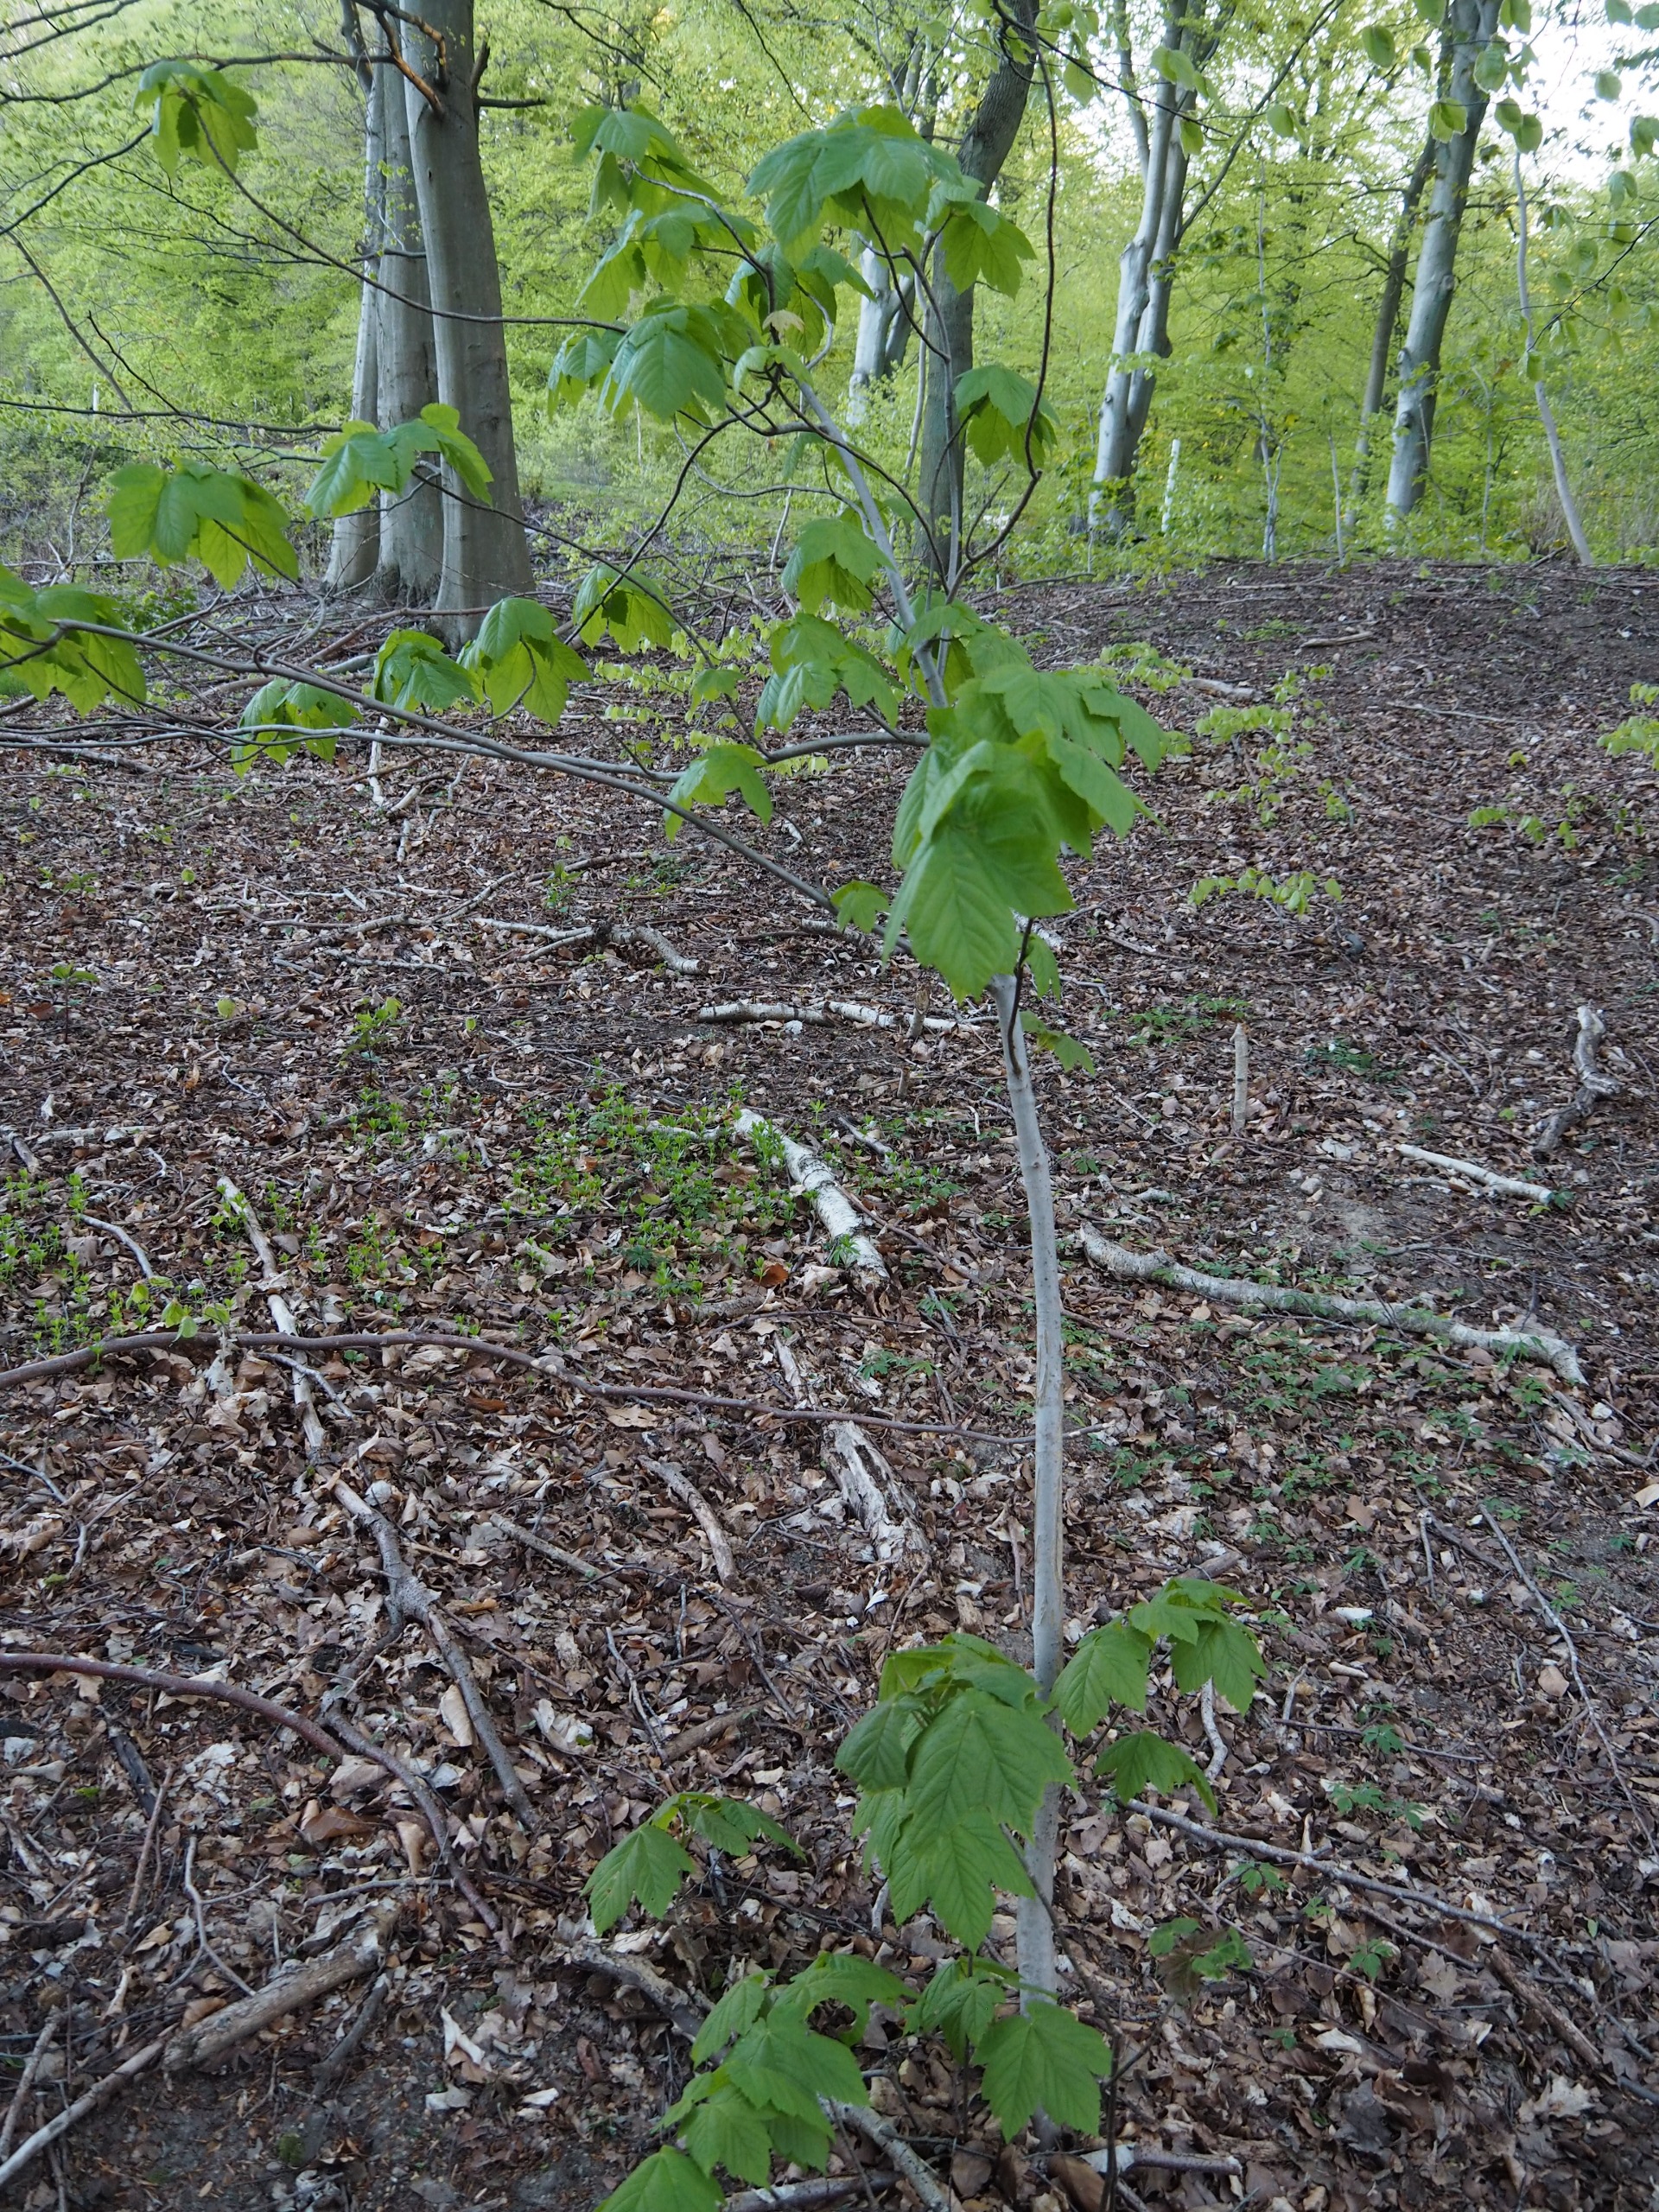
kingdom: Plantae
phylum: Tracheophyta
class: Magnoliopsida
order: Sapindales
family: Sapindaceae
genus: Acer
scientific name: Acer pseudoplatanus
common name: Ahorn
